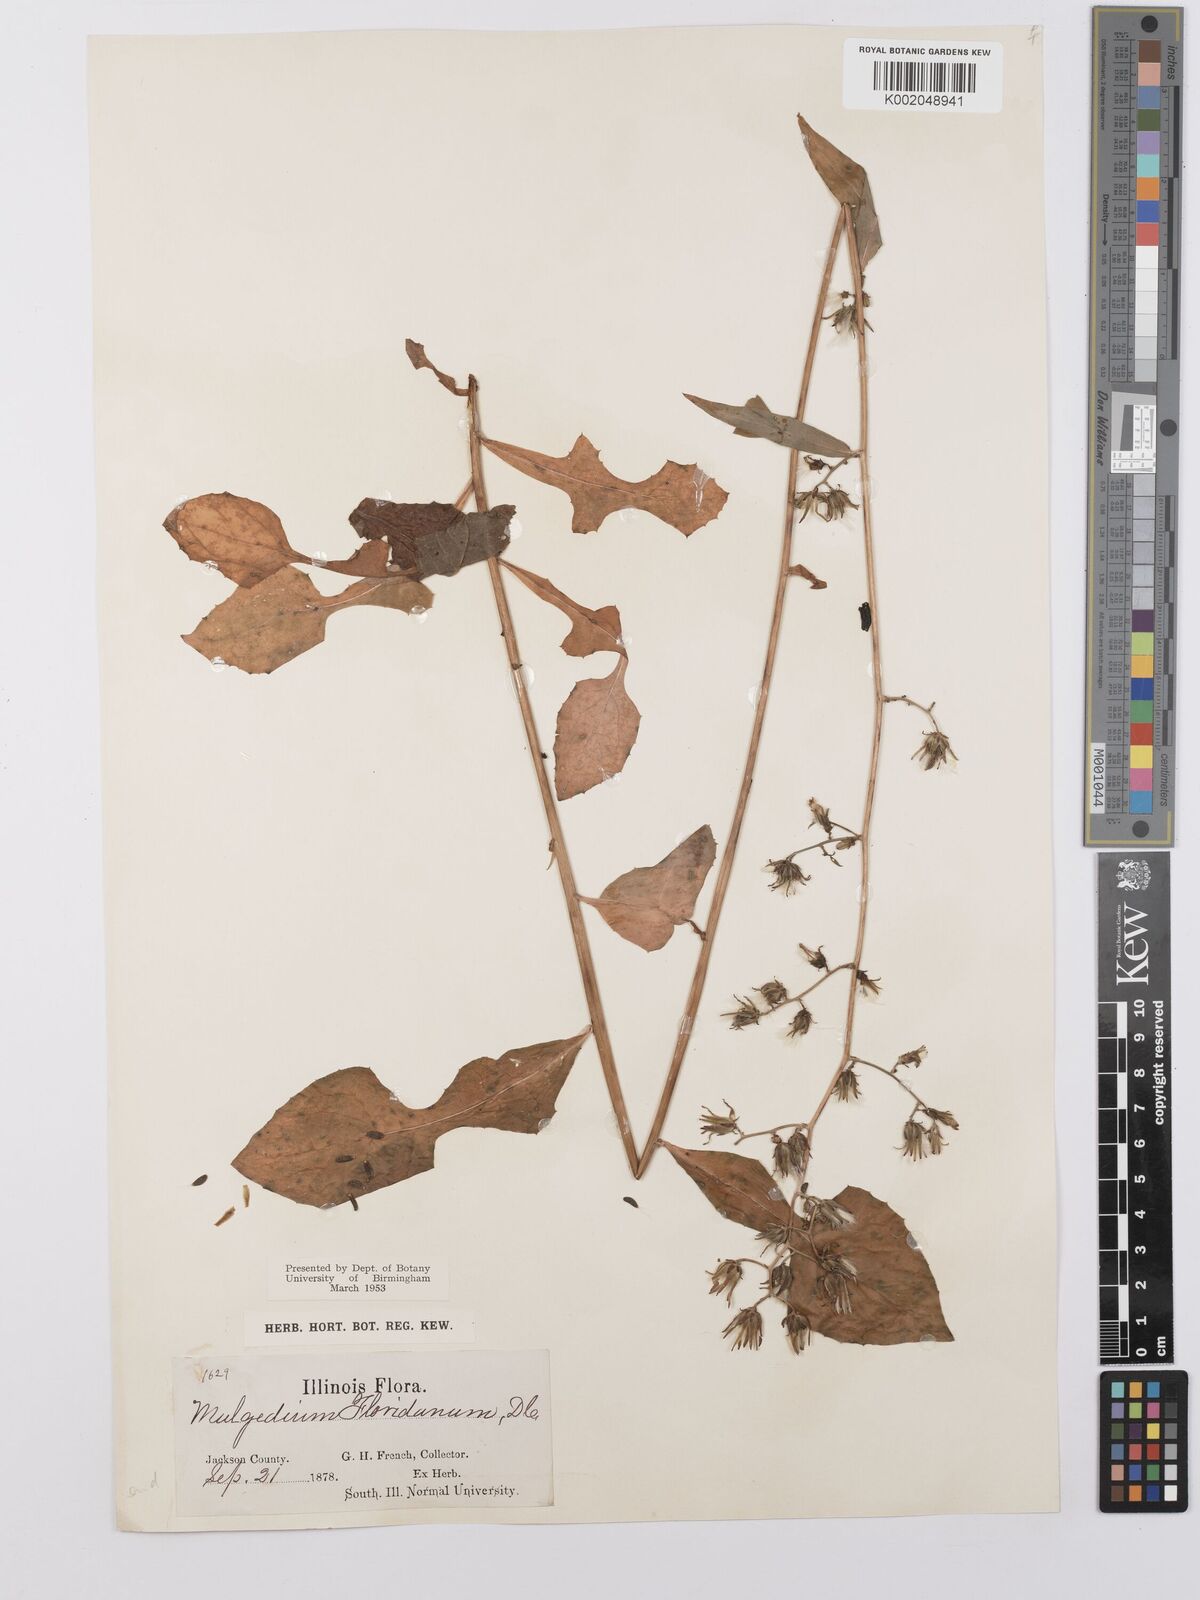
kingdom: Plantae
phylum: Tracheophyta
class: Magnoliopsida
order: Asterales
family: Asteraceae
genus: Lactuca
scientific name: Lactuca floridana
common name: Woodland lettuce
